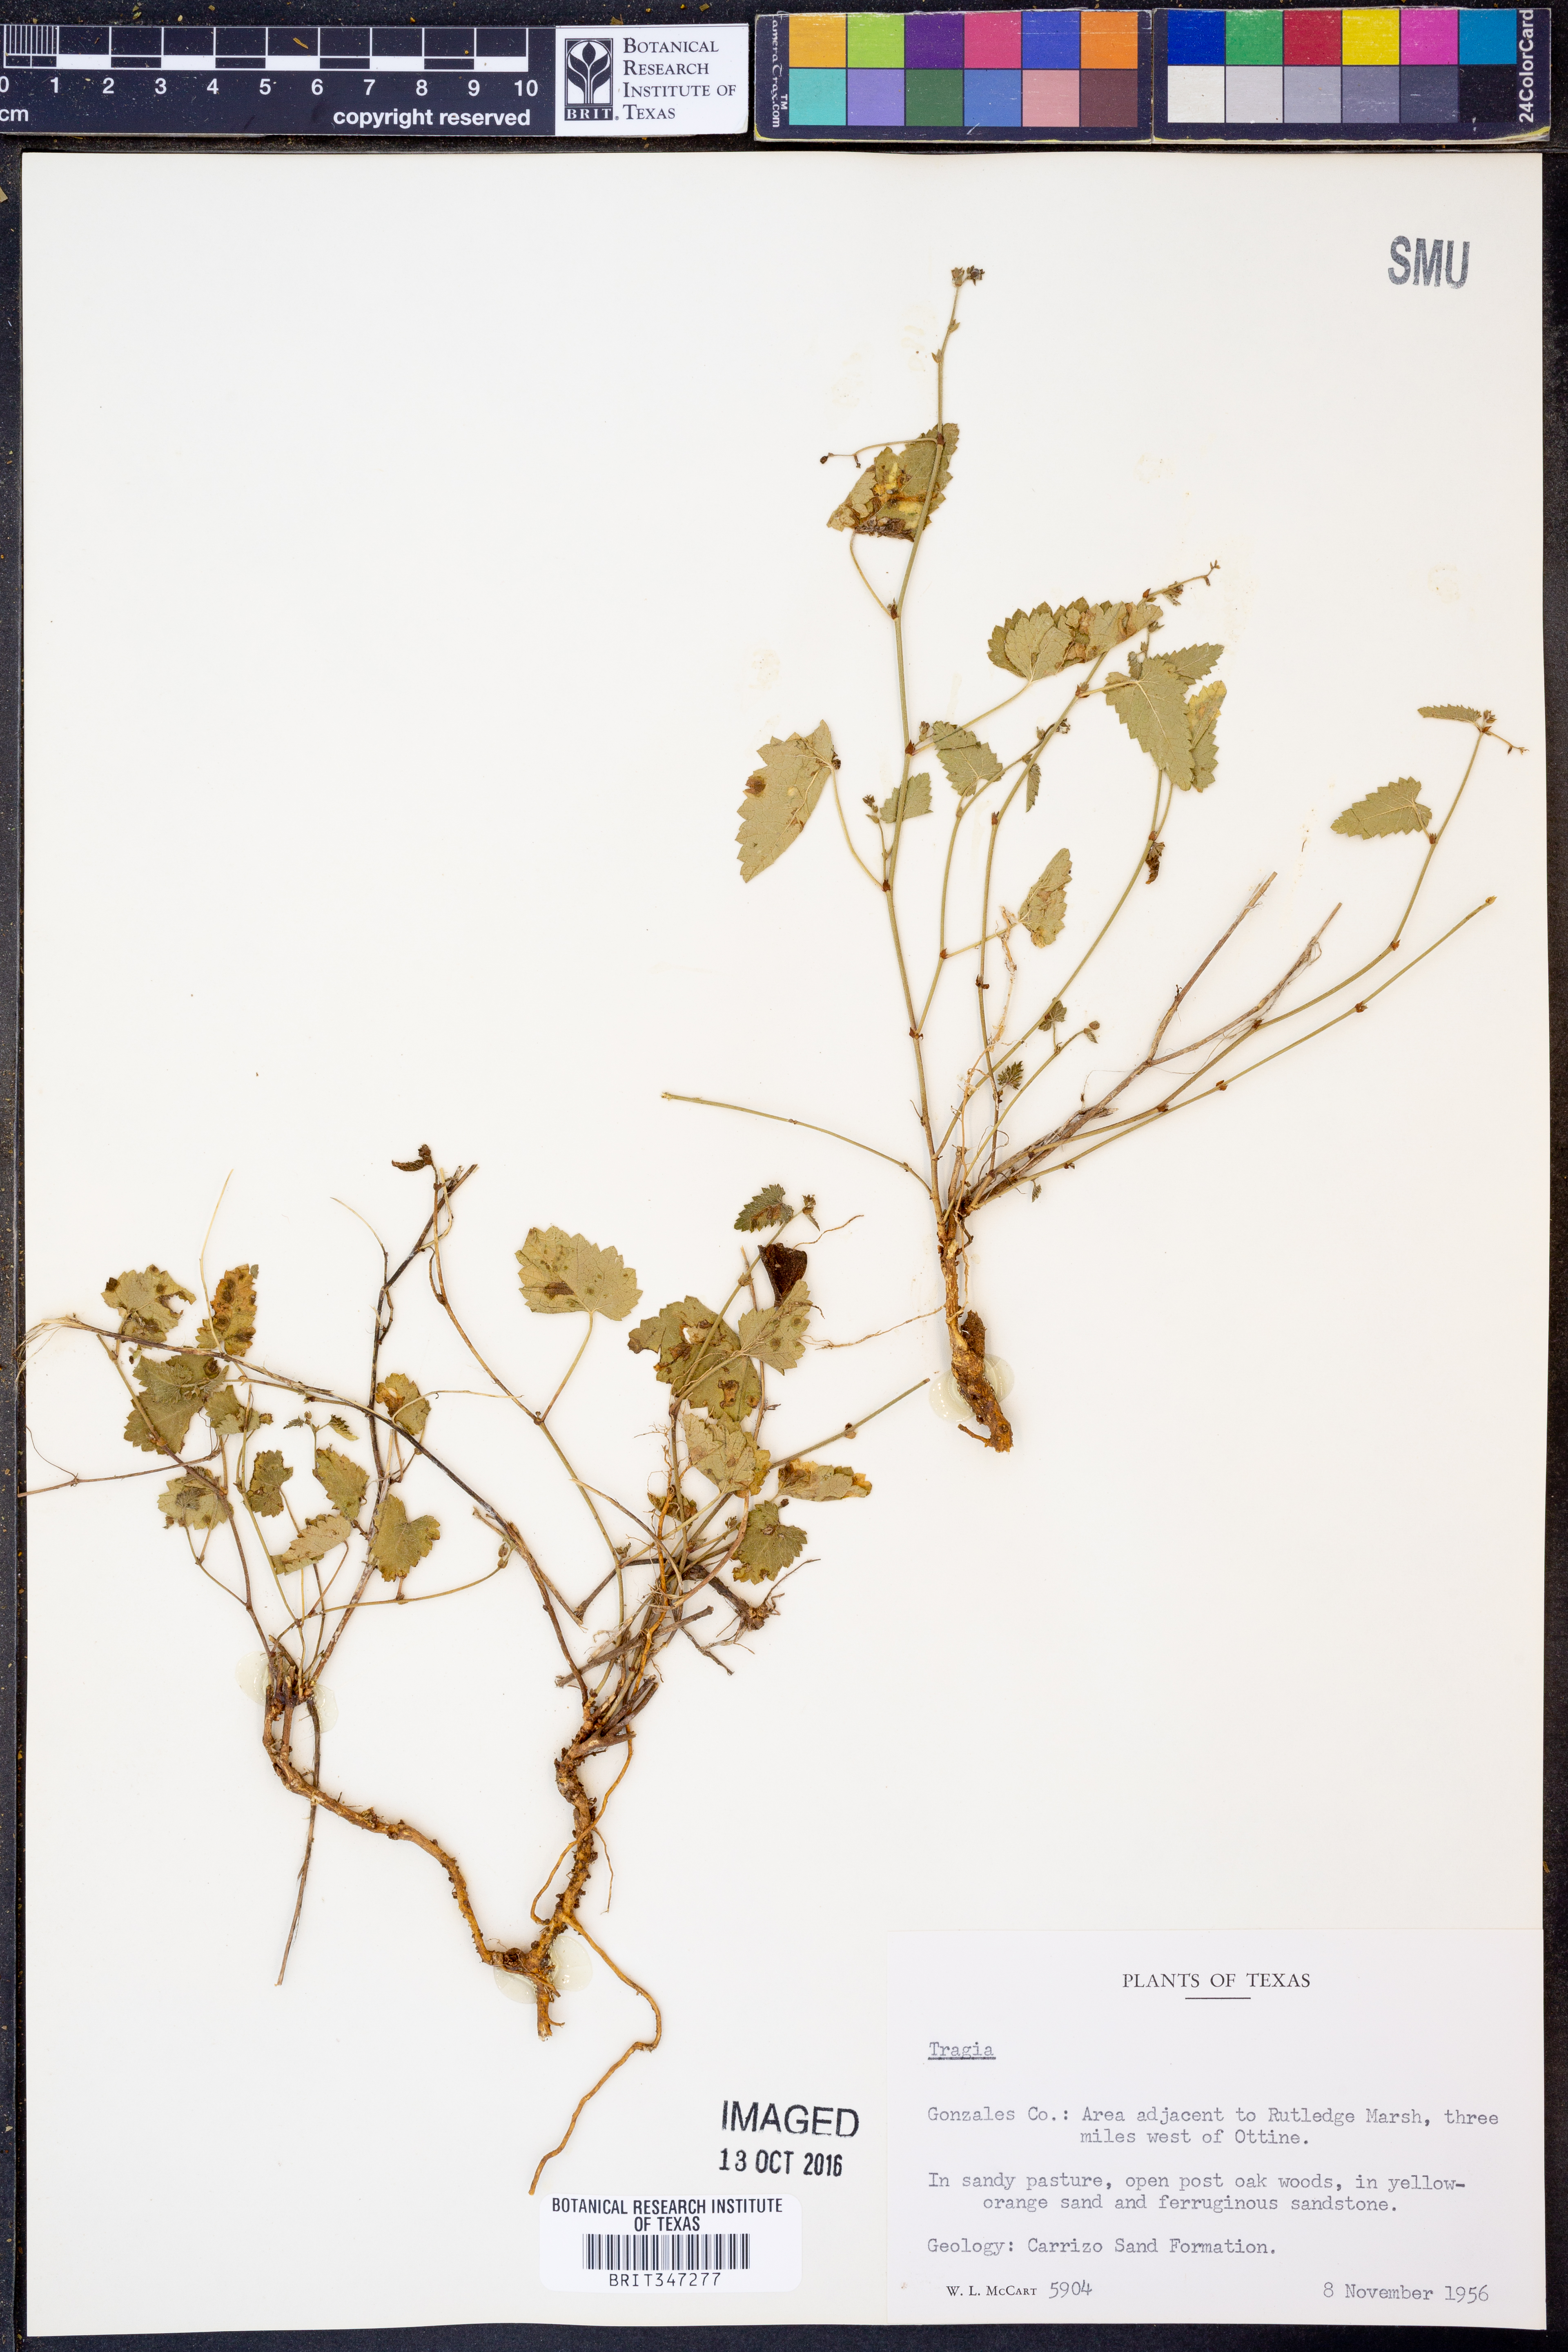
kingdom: Plantae
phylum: Tracheophyta
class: Magnoliopsida
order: Malpighiales
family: Euphorbiaceae
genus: Tragia
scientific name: Tragia
